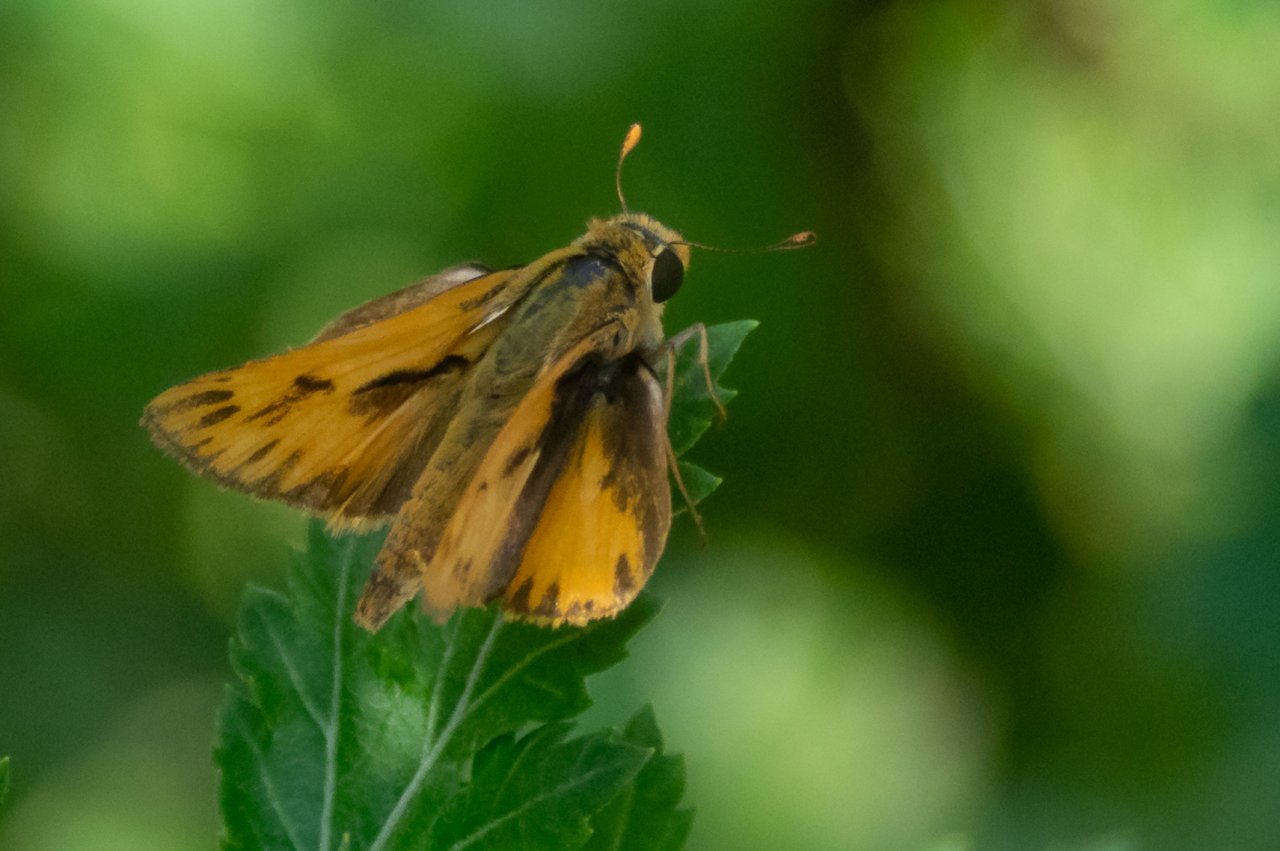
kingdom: Animalia
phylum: Arthropoda
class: Insecta
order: Lepidoptera
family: Hesperiidae
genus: Hylephila
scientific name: Hylephila phyleus
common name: Fiery Skipper
